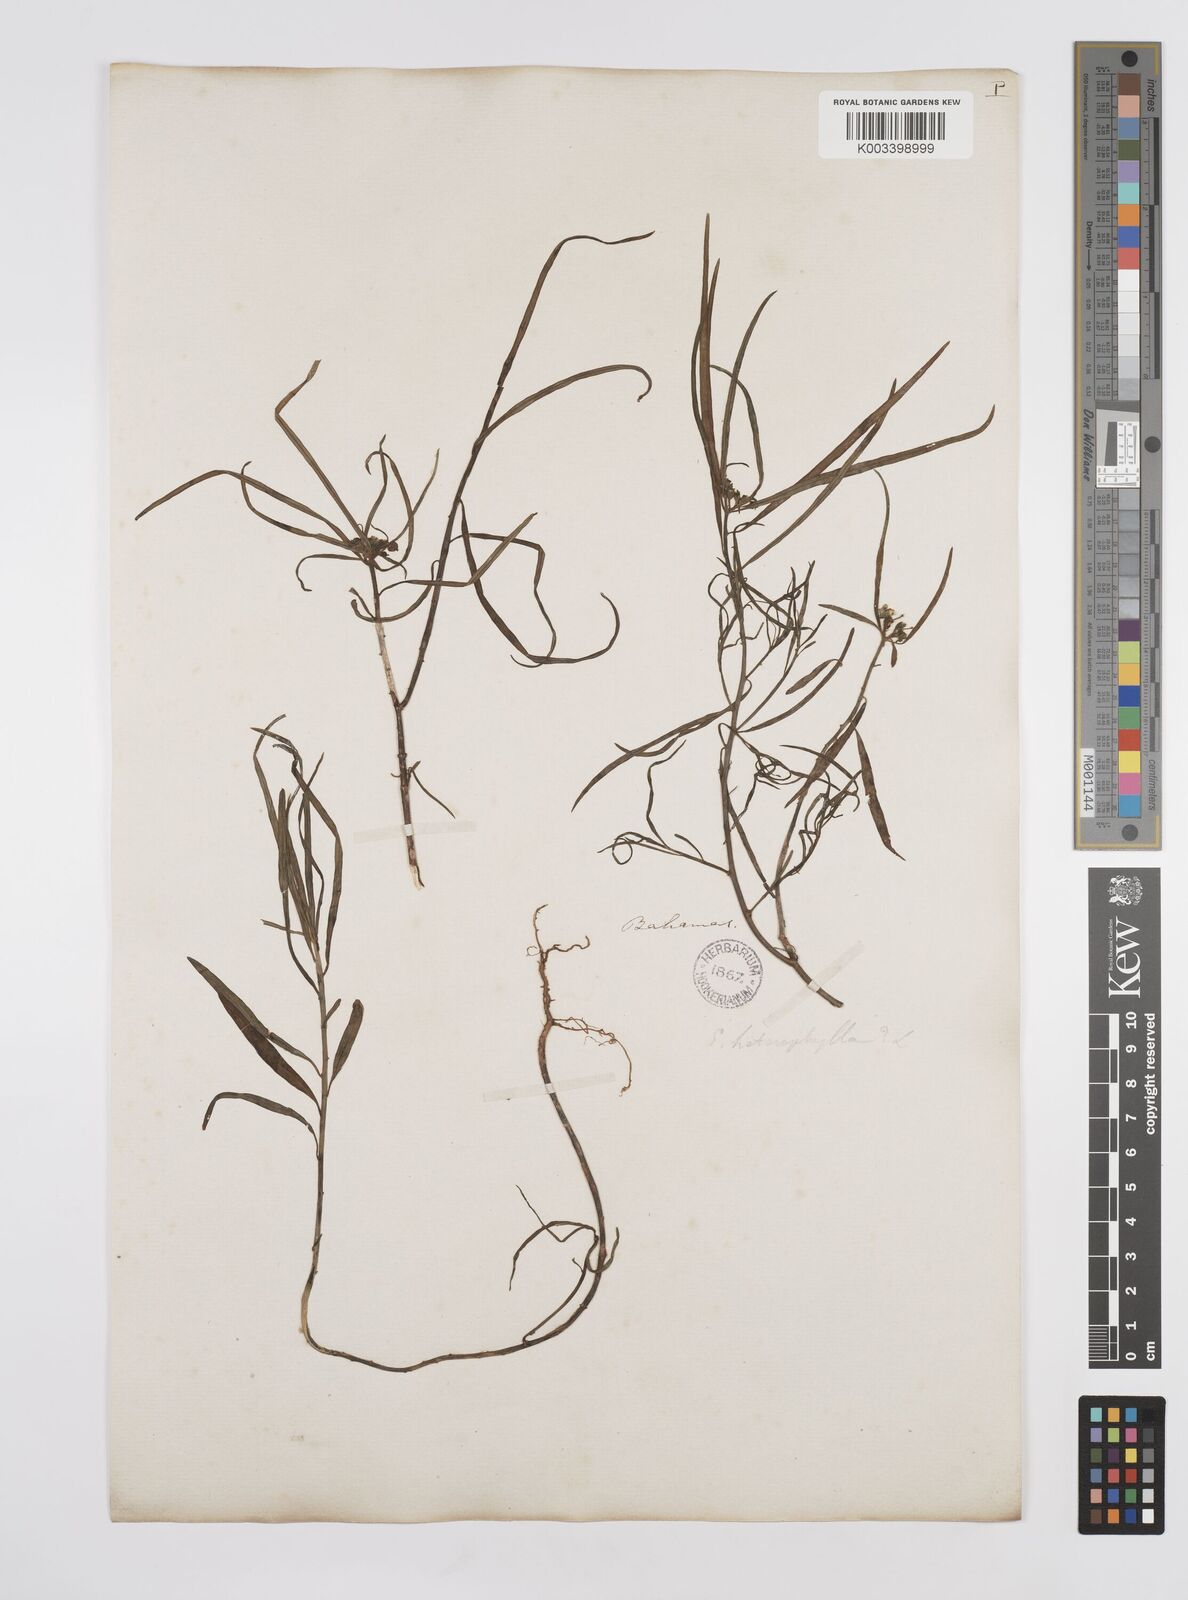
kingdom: Plantae
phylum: Tracheophyta
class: Magnoliopsida
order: Malpighiales
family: Euphorbiaceae
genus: Euphorbia
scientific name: Euphorbia heterophylla
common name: Mexican fireplant
